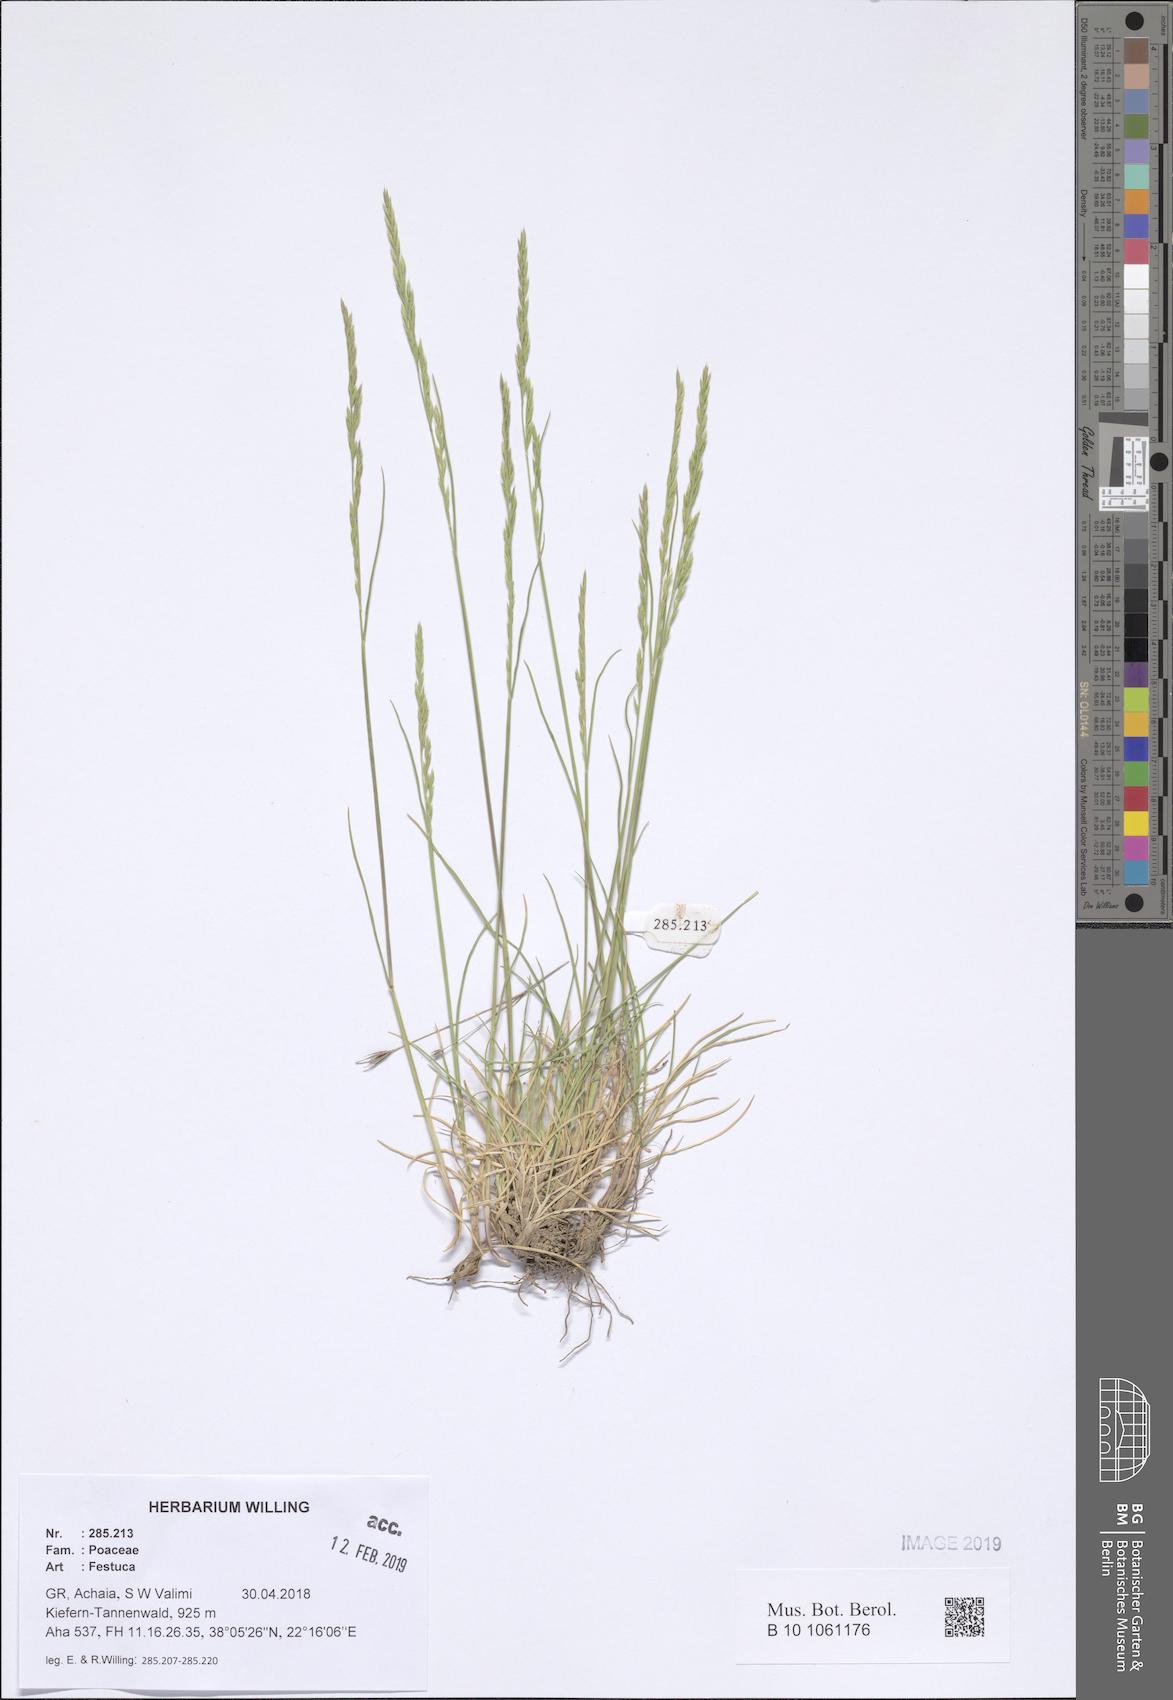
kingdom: Plantae
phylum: Tracheophyta
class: Liliopsida
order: Poales
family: Poaceae
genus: Festuca
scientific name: Festuca
